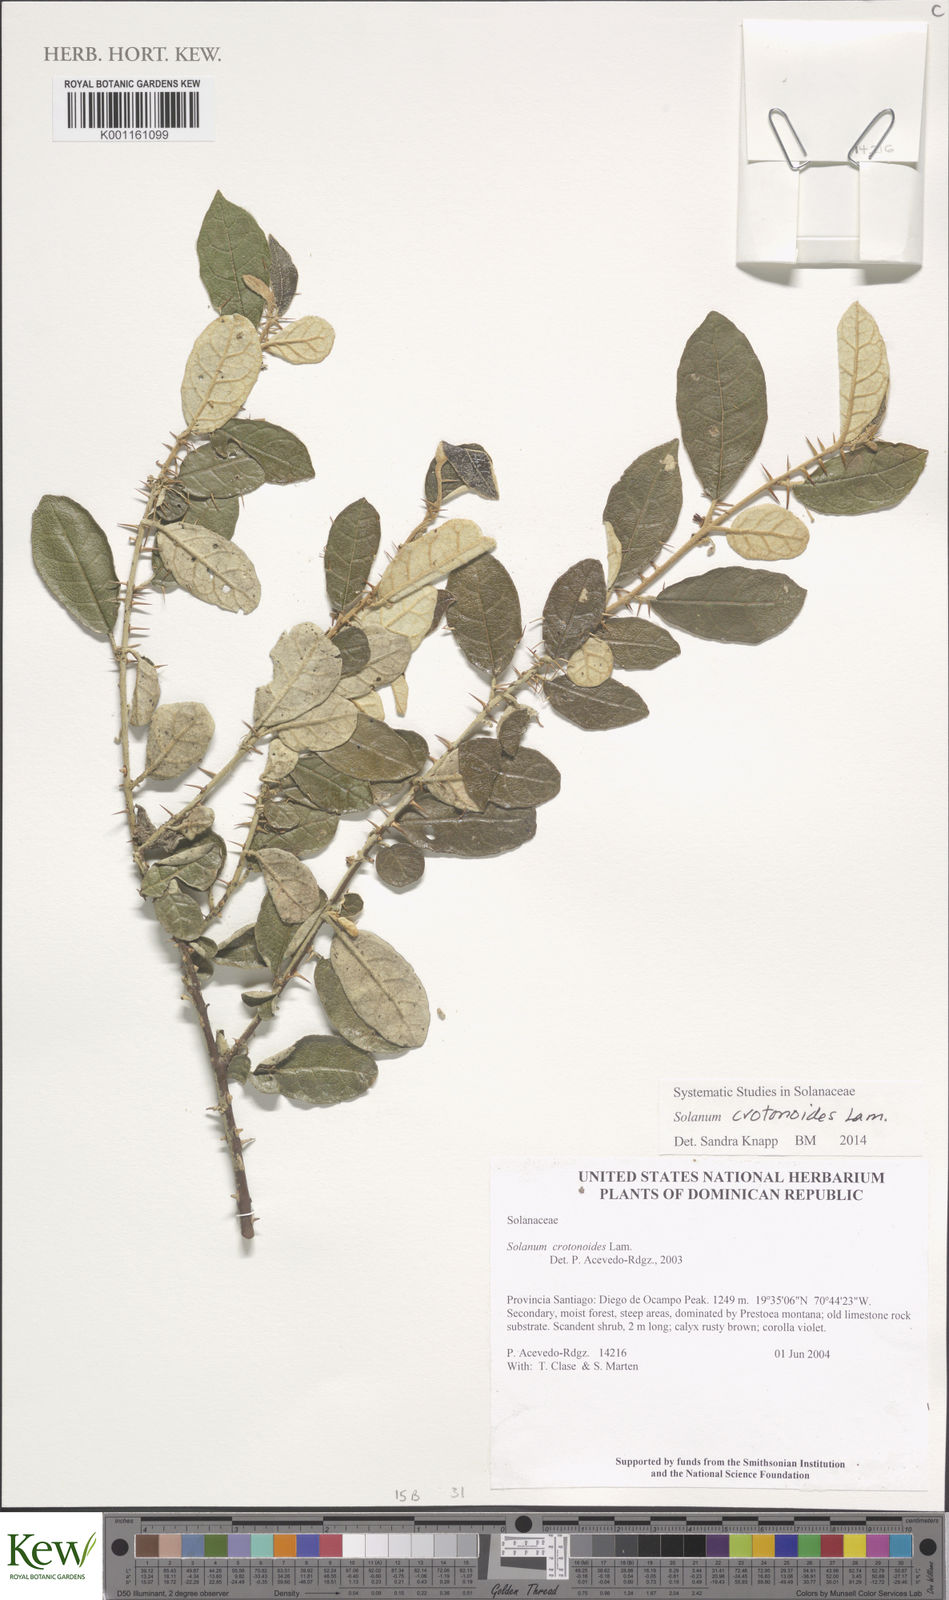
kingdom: Plantae
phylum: Tracheophyta
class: Magnoliopsida
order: Solanales
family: Solanaceae
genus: Solanum
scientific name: Solanum crotonoides
